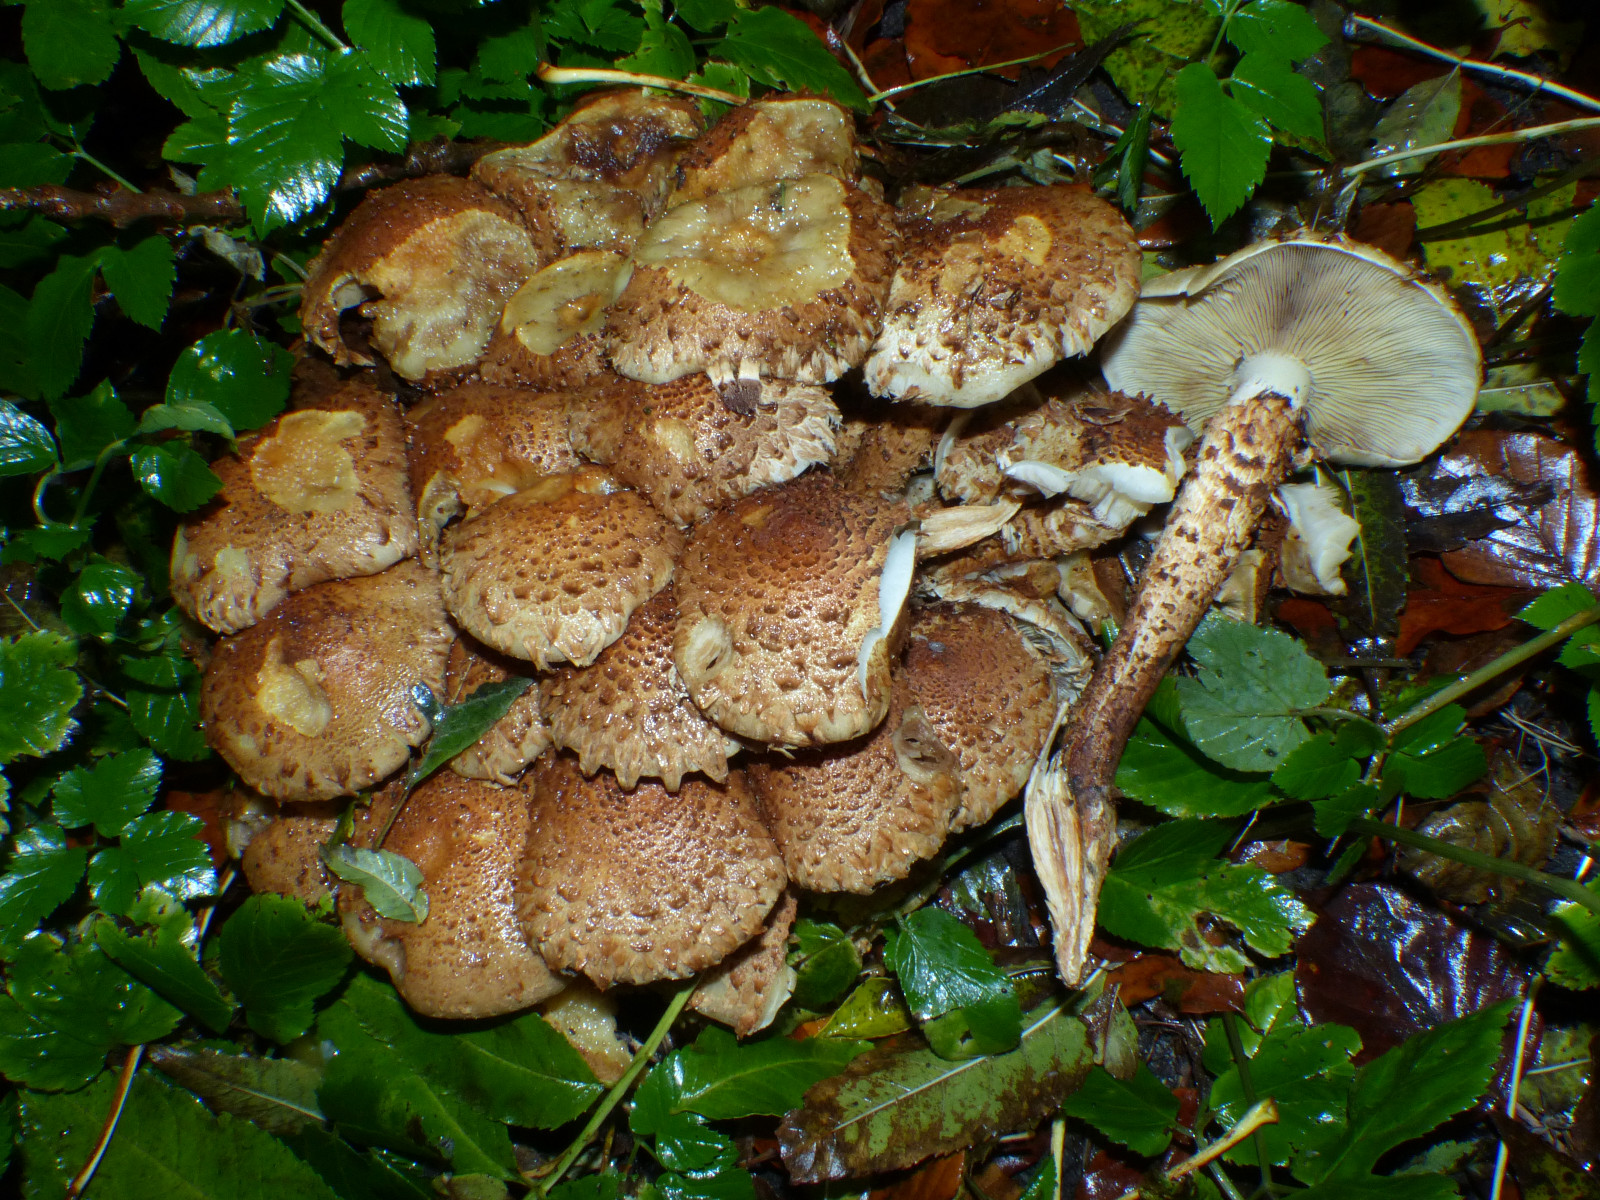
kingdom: Fungi
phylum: Basidiomycota
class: Agaricomycetes
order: Agaricales
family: Strophariaceae
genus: Pholiota
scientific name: Pholiota squarrosa
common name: krumskællet skælhat
